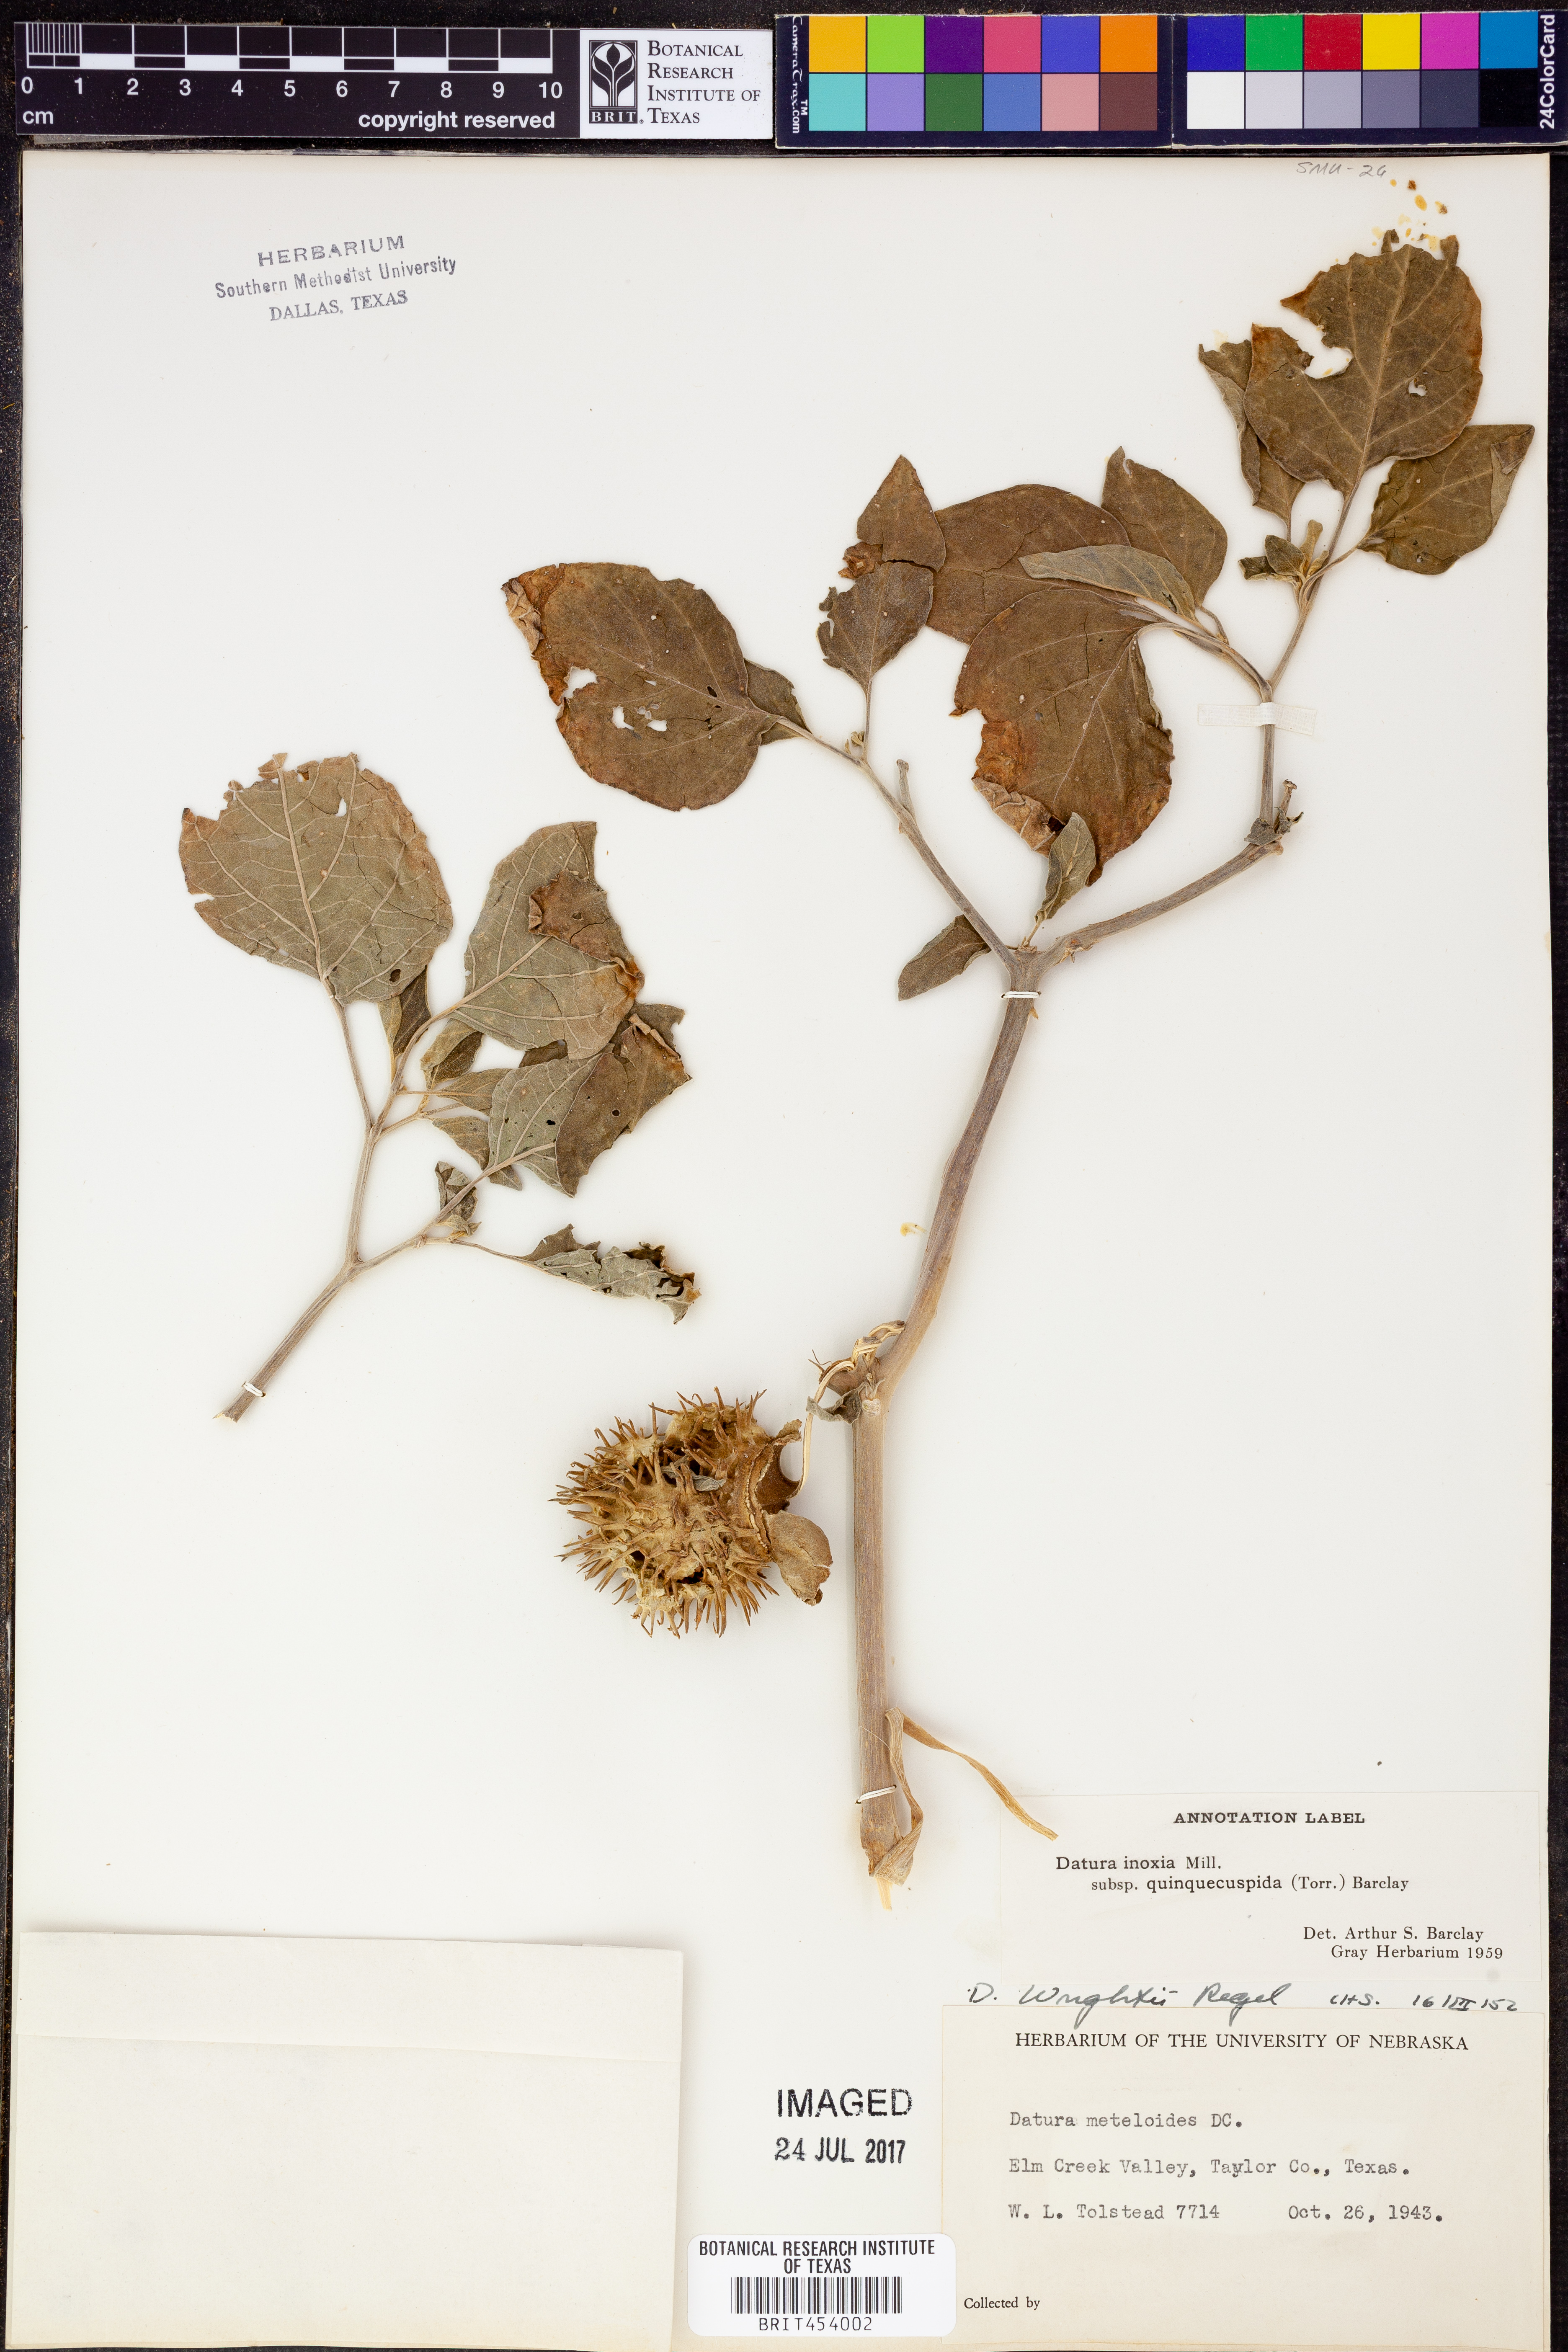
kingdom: Plantae
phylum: Tracheophyta
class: Magnoliopsida
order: Solanales
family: Solanaceae
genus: Datura
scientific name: Datura wrightii
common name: Sacred thorn-apple
